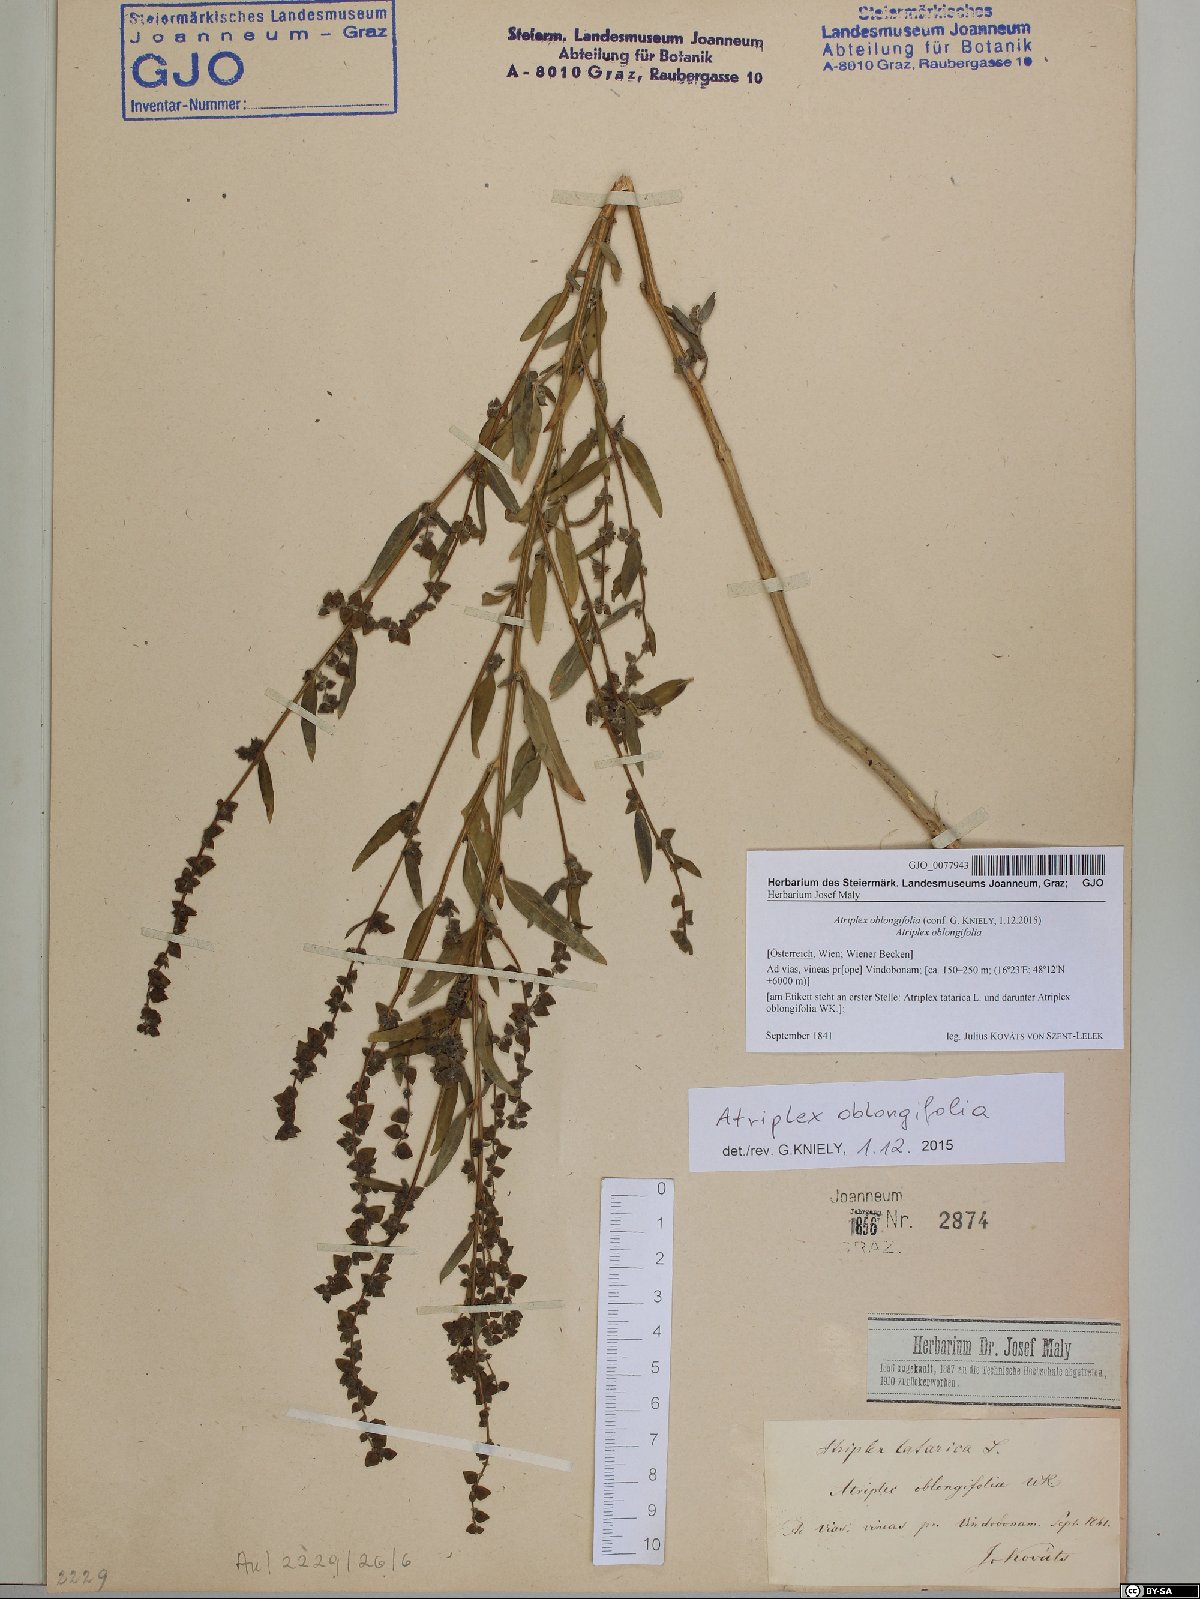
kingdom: Plantae
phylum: Tracheophyta
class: Magnoliopsida
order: Caryophyllales
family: Amaranthaceae
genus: Atriplex
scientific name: Atriplex oblongifolia
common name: Oblongleaf orache
